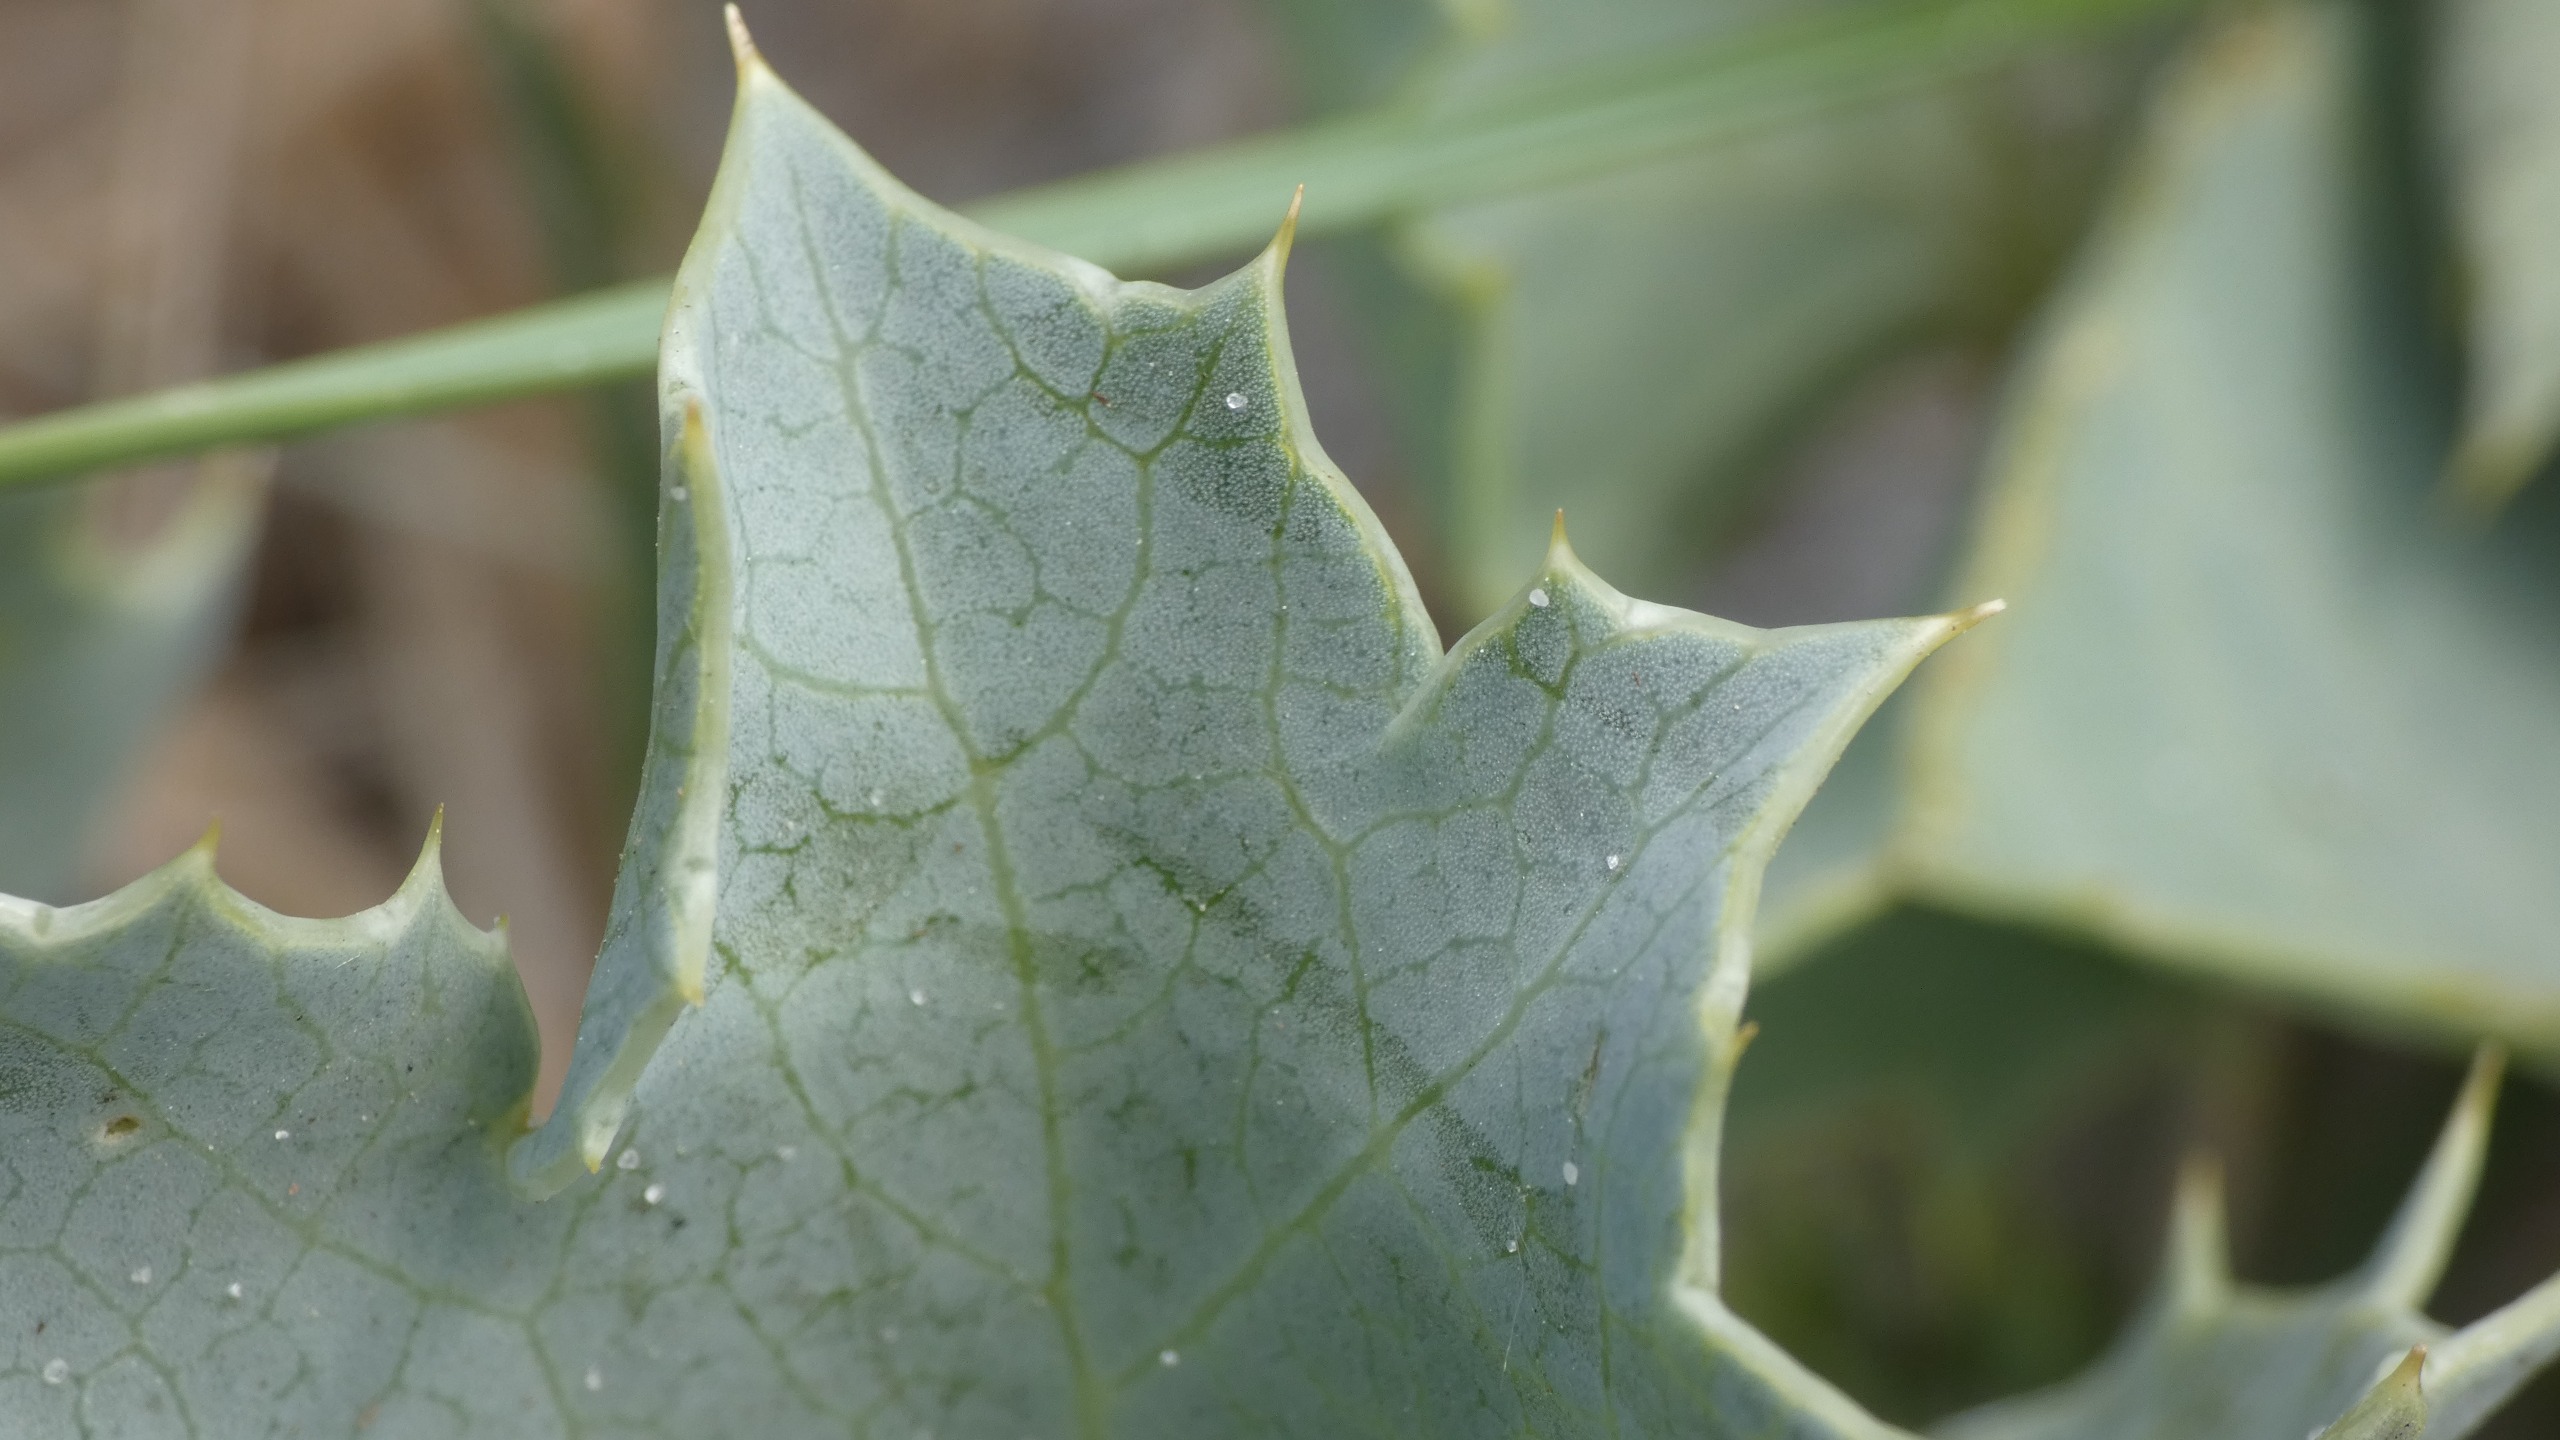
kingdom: Plantae
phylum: Tracheophyta
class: Magnoliopsida
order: Apiales
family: Apiaceae
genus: Eryngium
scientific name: Eryngium maritimum
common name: Strand-mandstro
